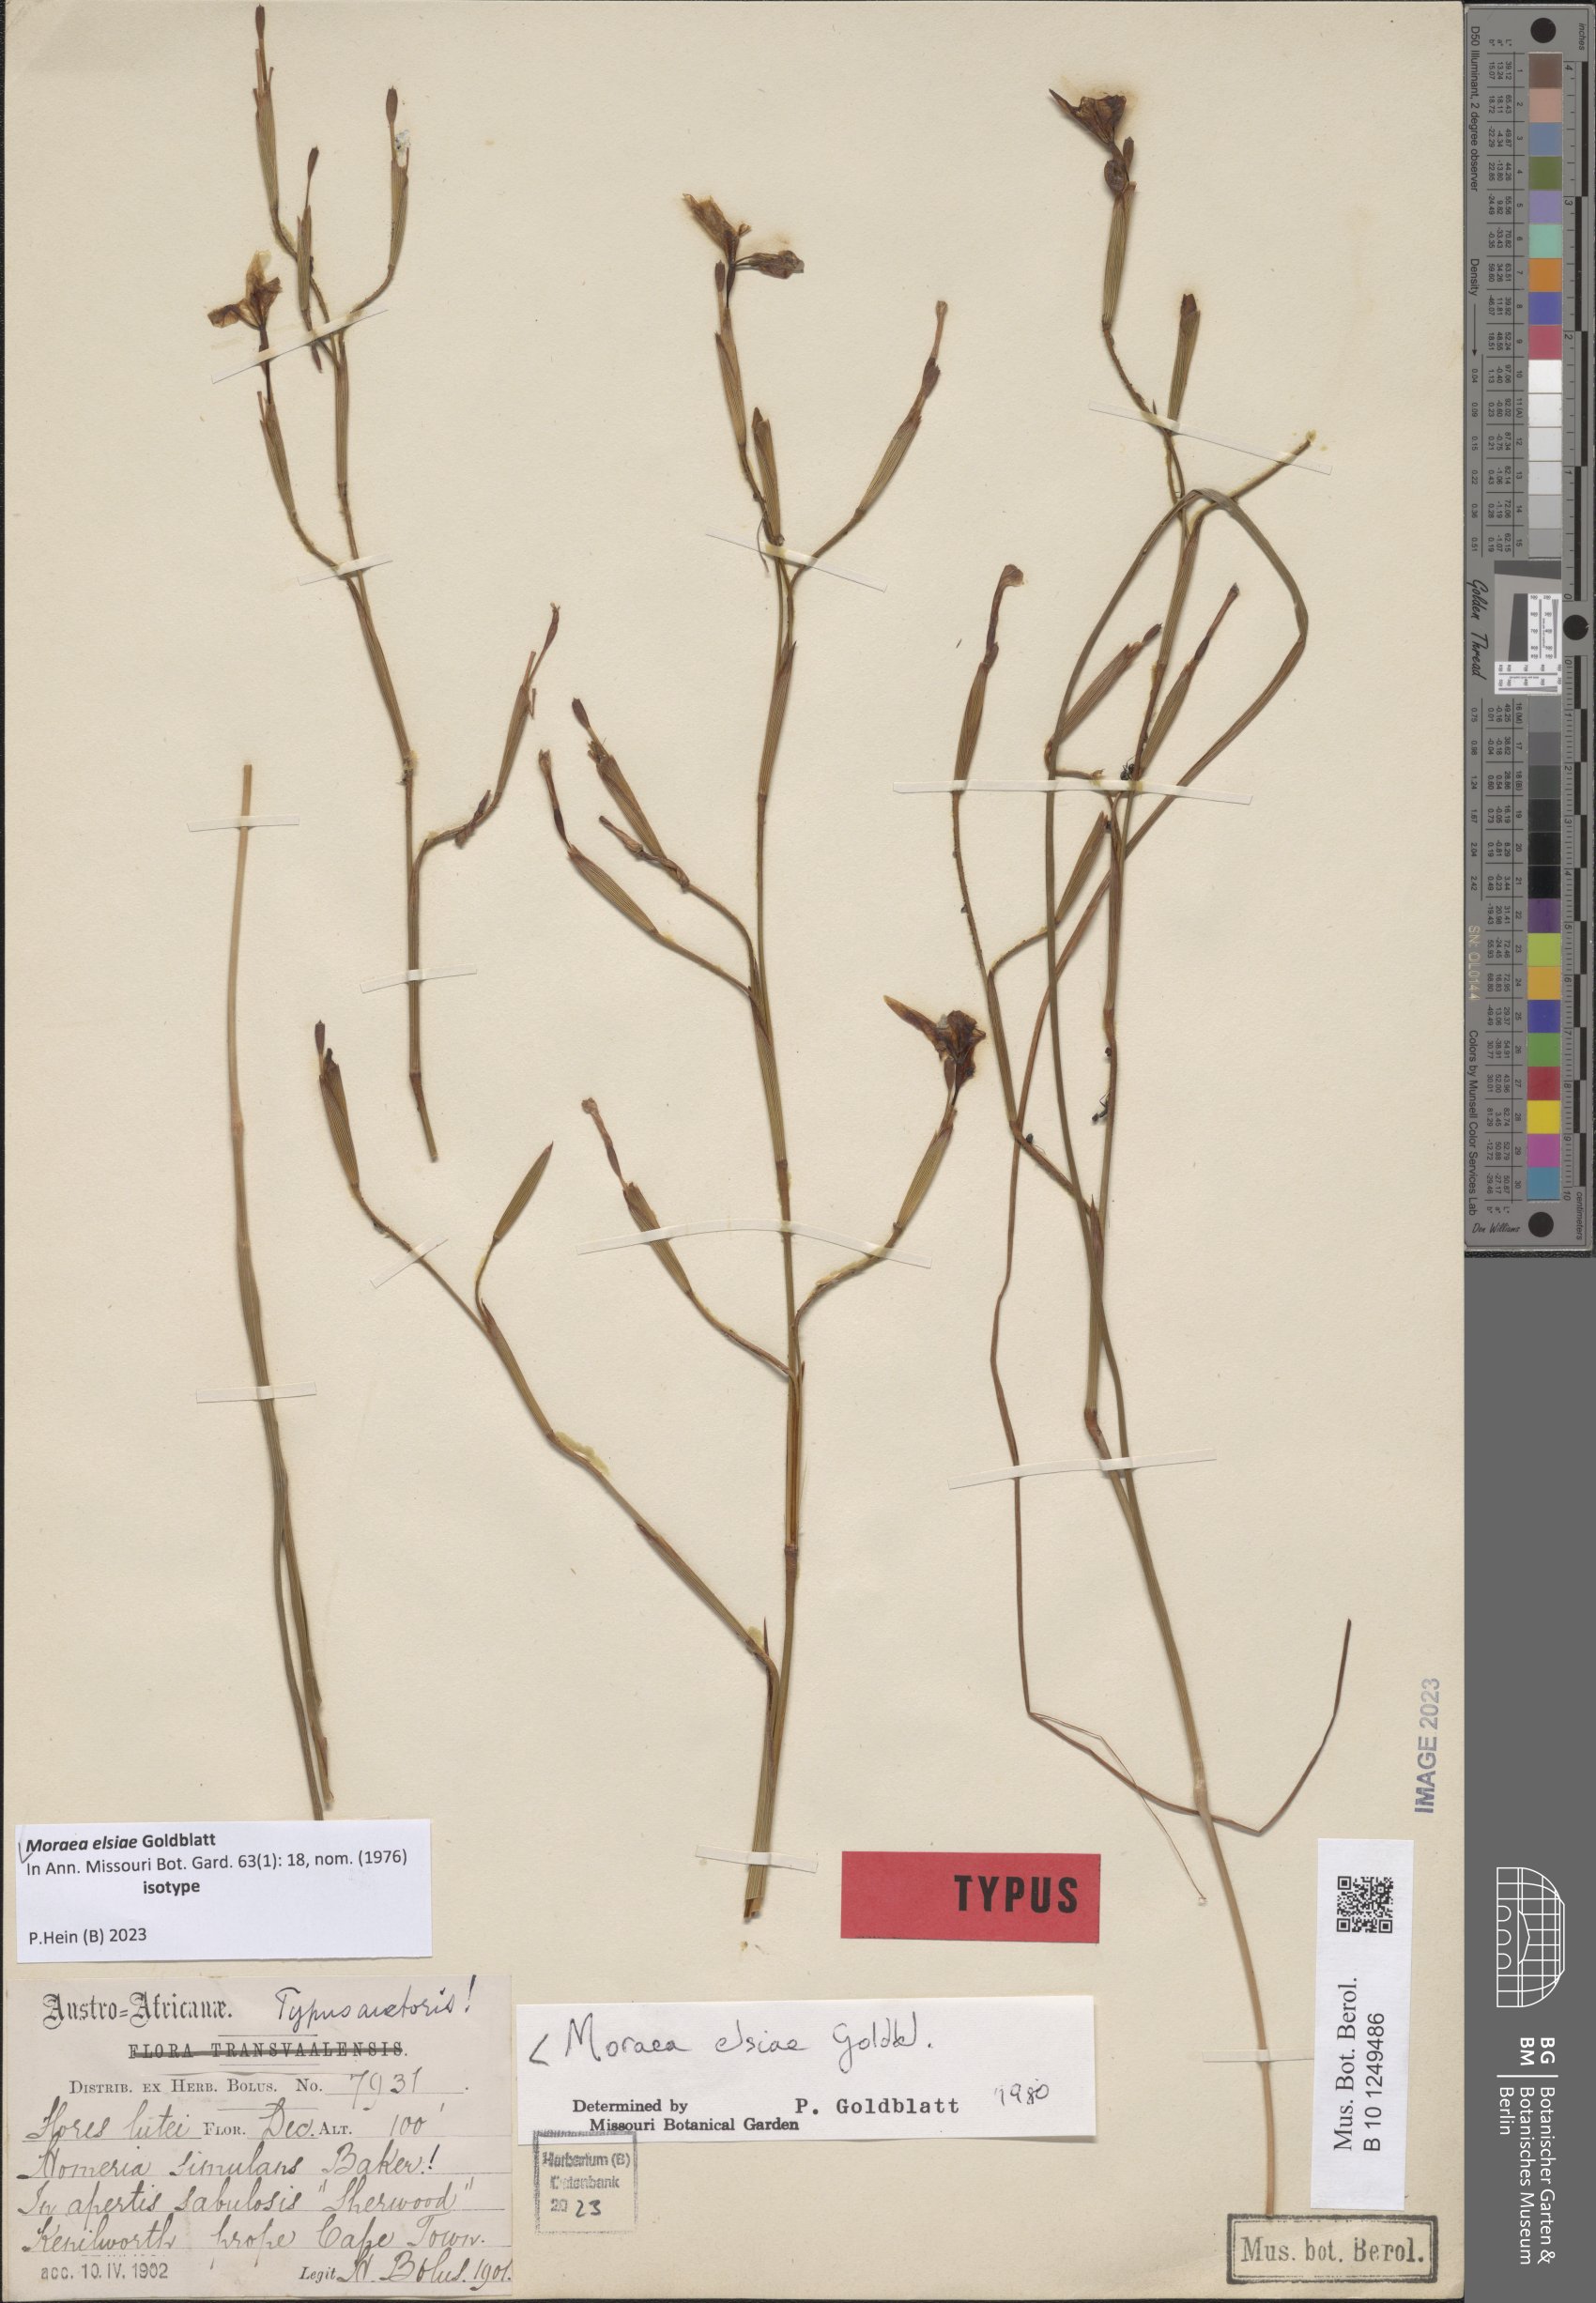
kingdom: Plantae
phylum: Tracheophyta
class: Liliopsida
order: Asparagales
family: Iridaceae
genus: Moraea
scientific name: Moraea elsiae
